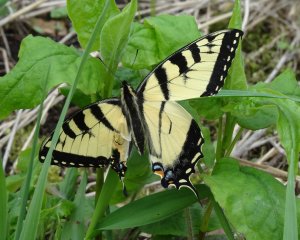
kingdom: Animalia
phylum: Arthropoda
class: Insecta
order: Lepidoptera
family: Papilionidae
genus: Pterourus
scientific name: Pterourus glaucus
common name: Eastern Tiger Swallowtail
